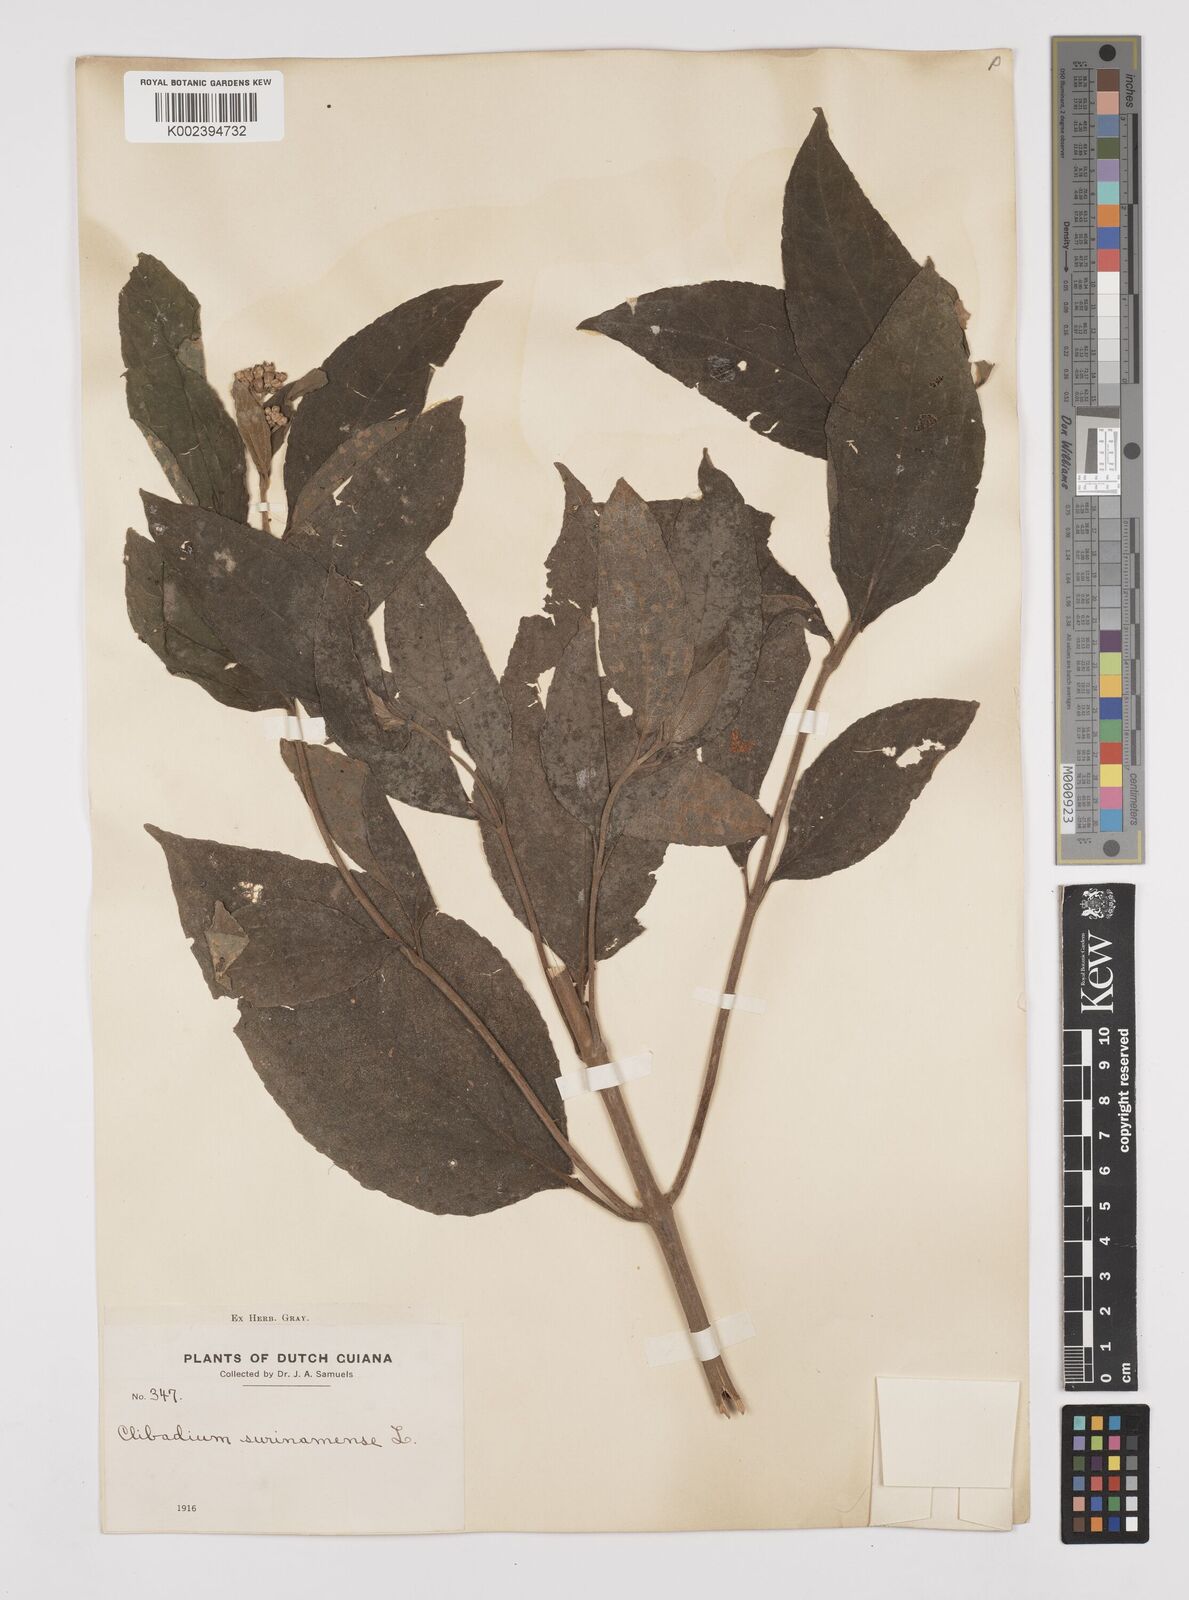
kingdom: Plantae
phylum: Tracheophyta
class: Magnoliopsida
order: Asterales
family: Asteraceae
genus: Clibadium
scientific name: Clibadium surinamense
